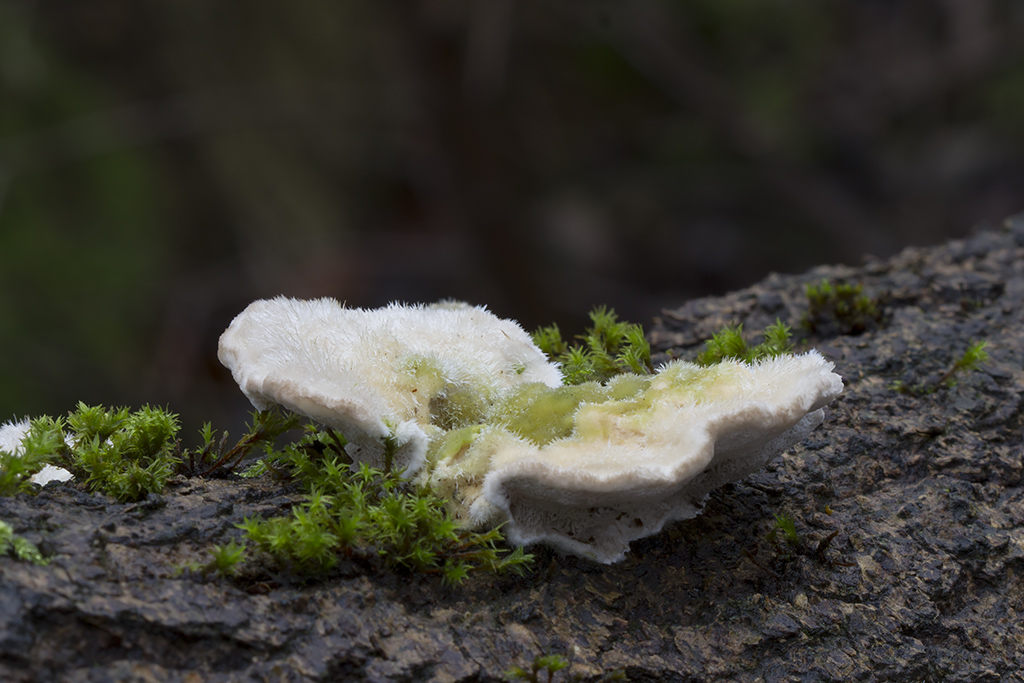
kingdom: Fungi
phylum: Basidiomycota
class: Agaricomycetes
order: Polyporales
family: Polyporaceae
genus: Trametes
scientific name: Trametes hirsuta
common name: håret læderporesvamp
